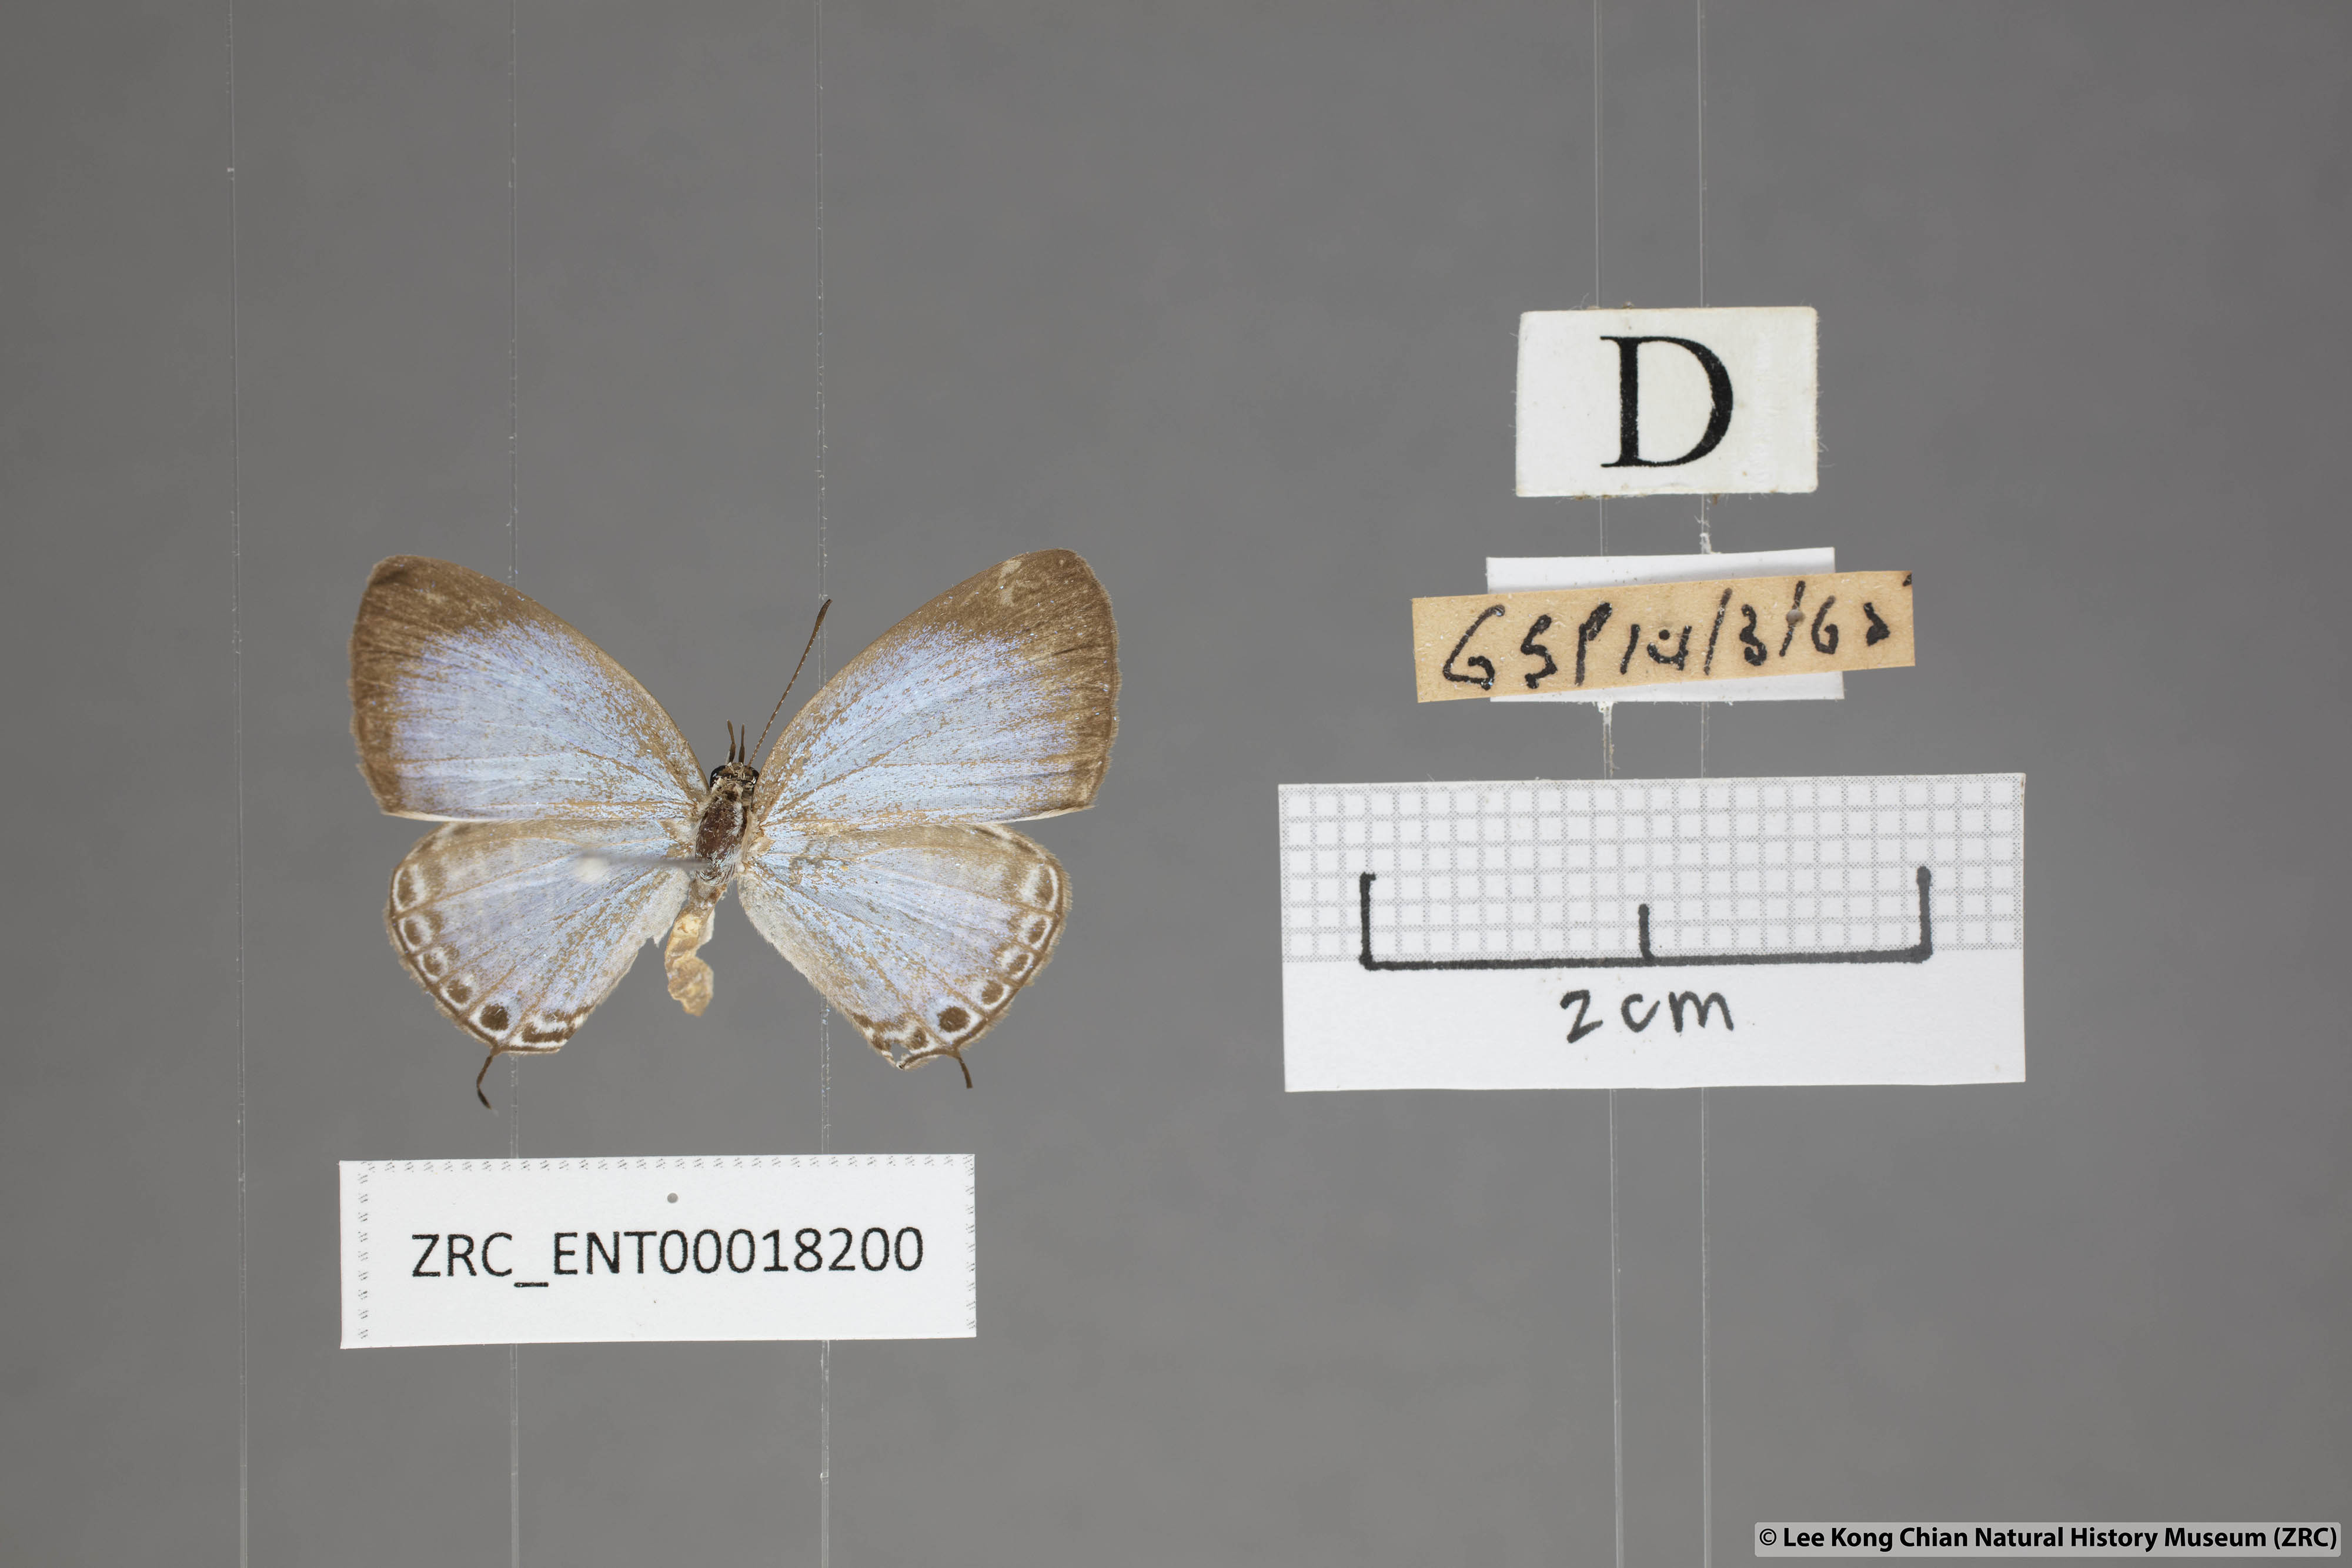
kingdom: Animalia
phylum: Arthropoda
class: Insecta
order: Lepidoptera
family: Lycaenidae
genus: Jamides
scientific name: Jamides talinga
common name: Lesser cerulean
